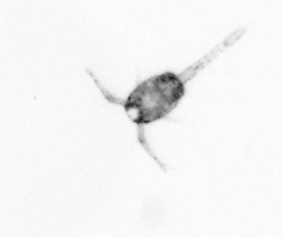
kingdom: Animalia
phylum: Arthropoda
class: Copepoda
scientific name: Copepoda
